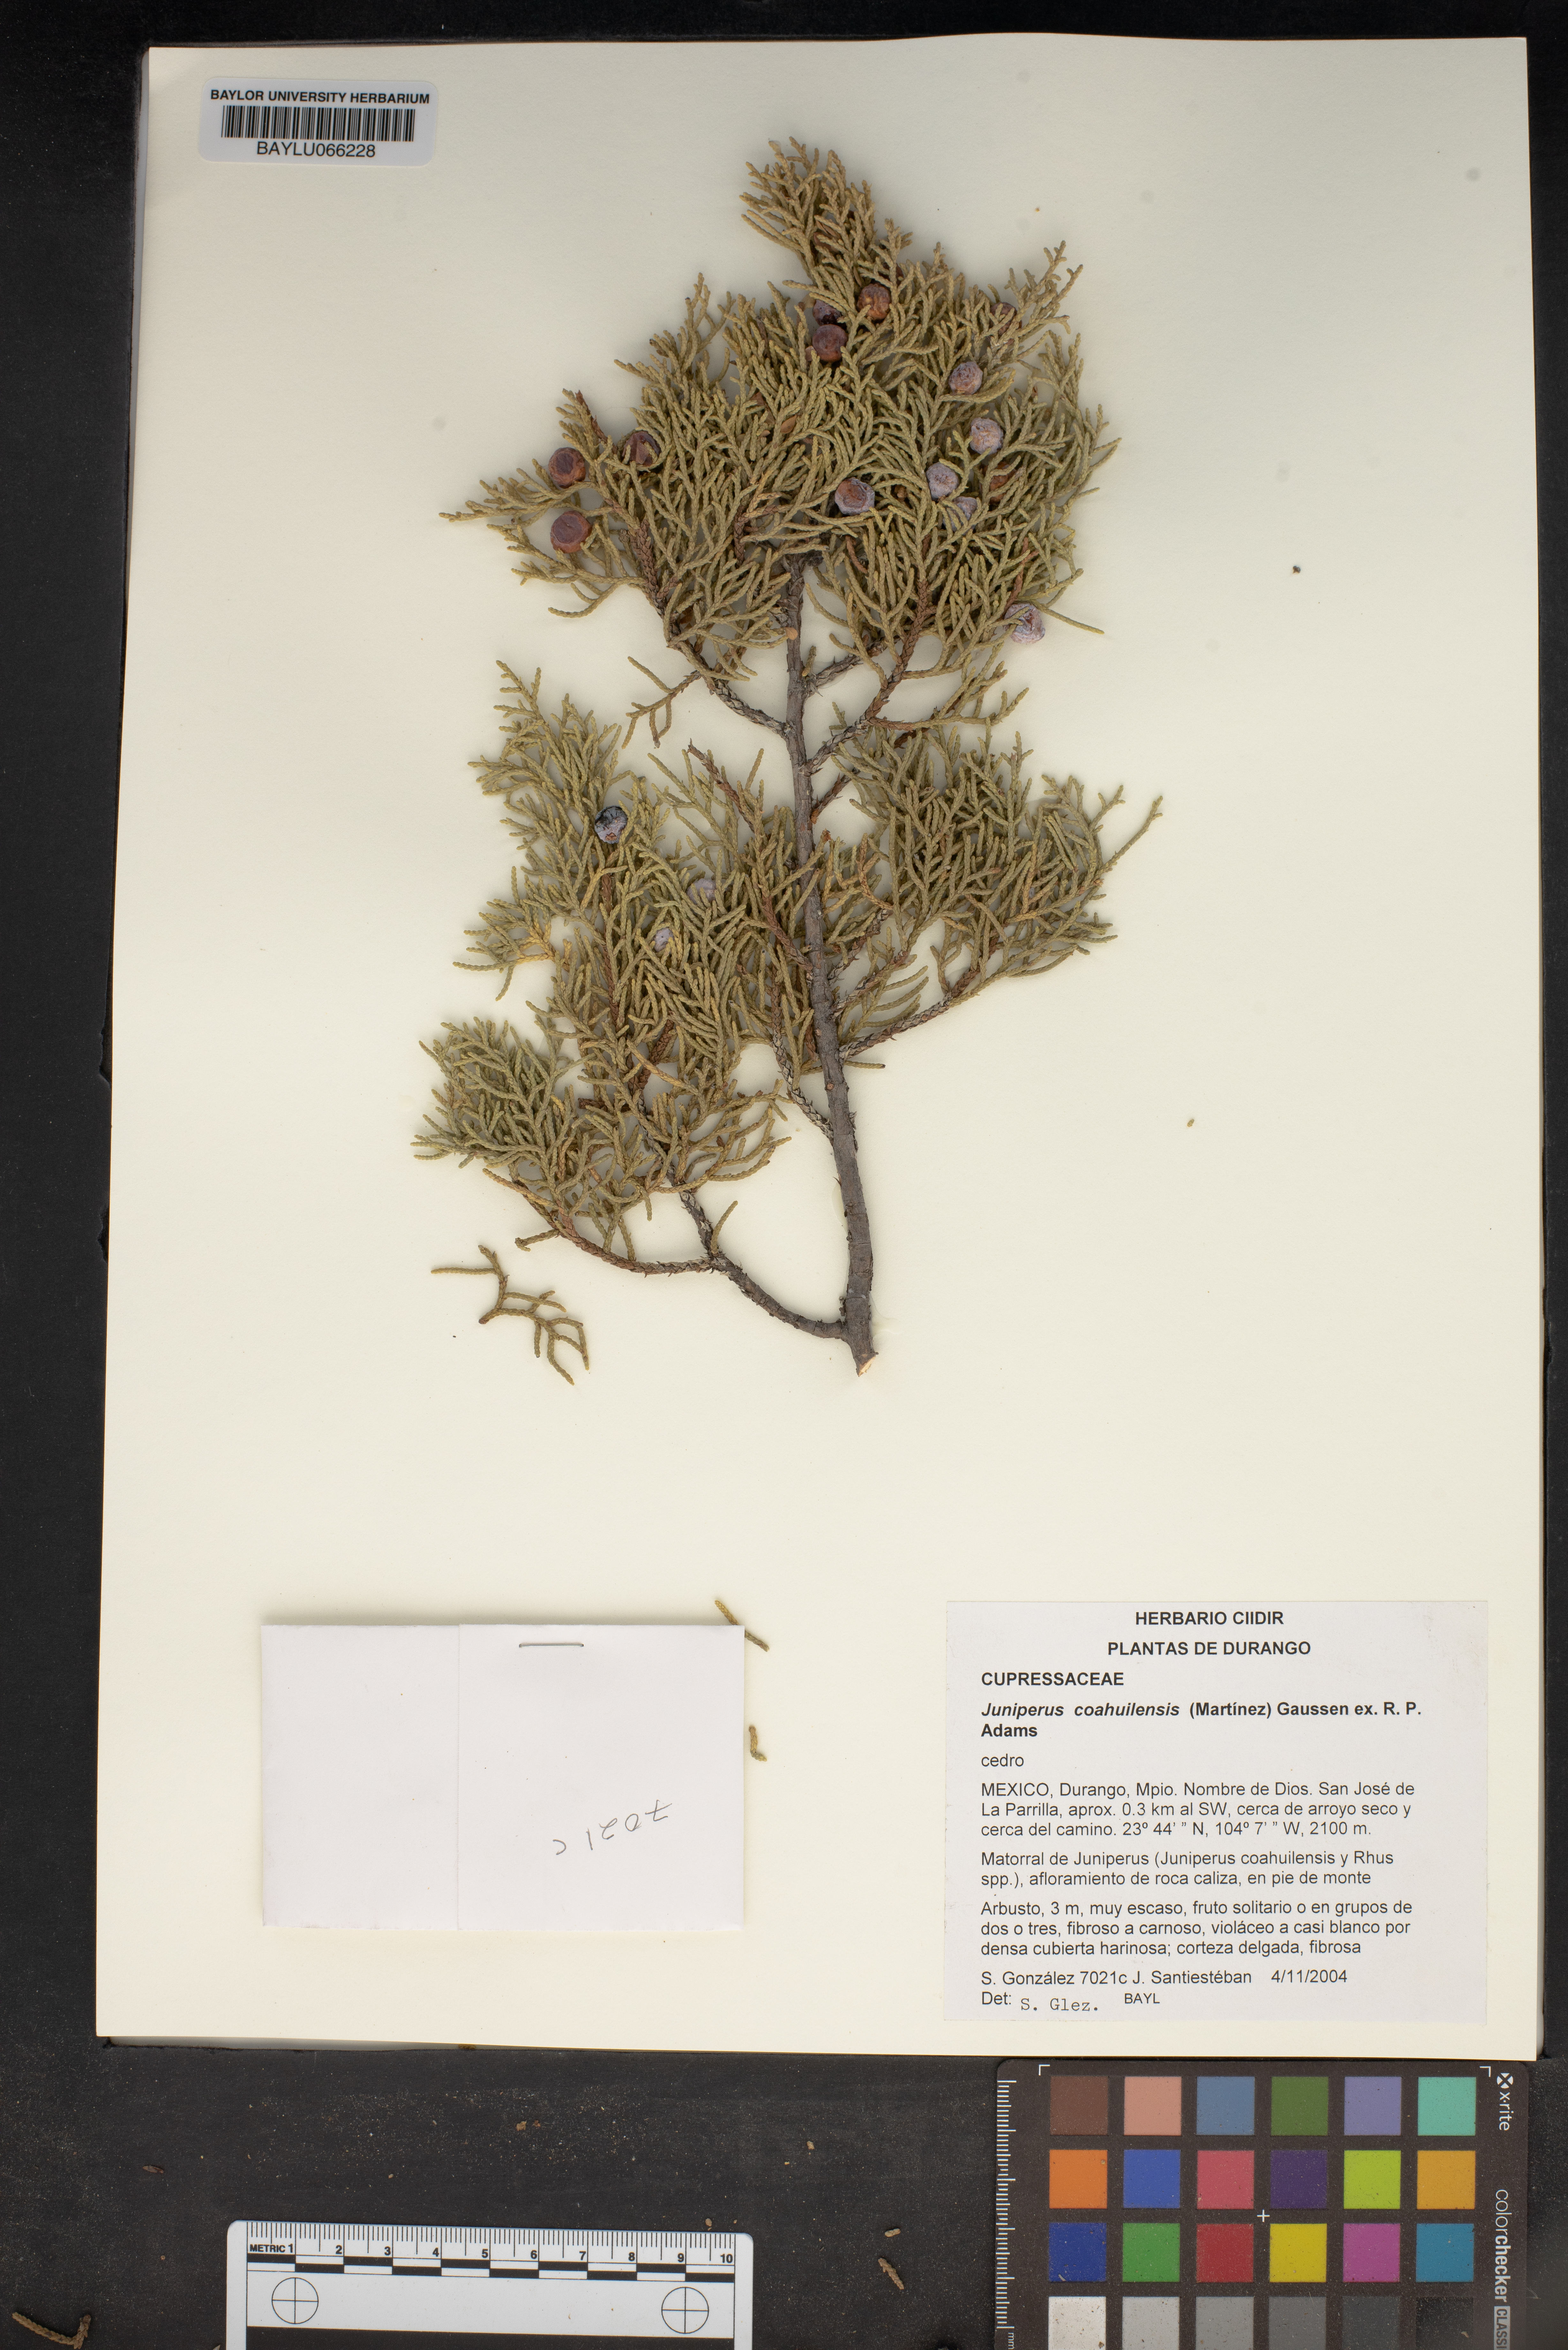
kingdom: Plantae
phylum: Tracheophyta
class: Pinopsida
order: Pinales
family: Cupressaceae
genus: Juniperus
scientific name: Juniperus coahuilensis
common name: Roseberry
